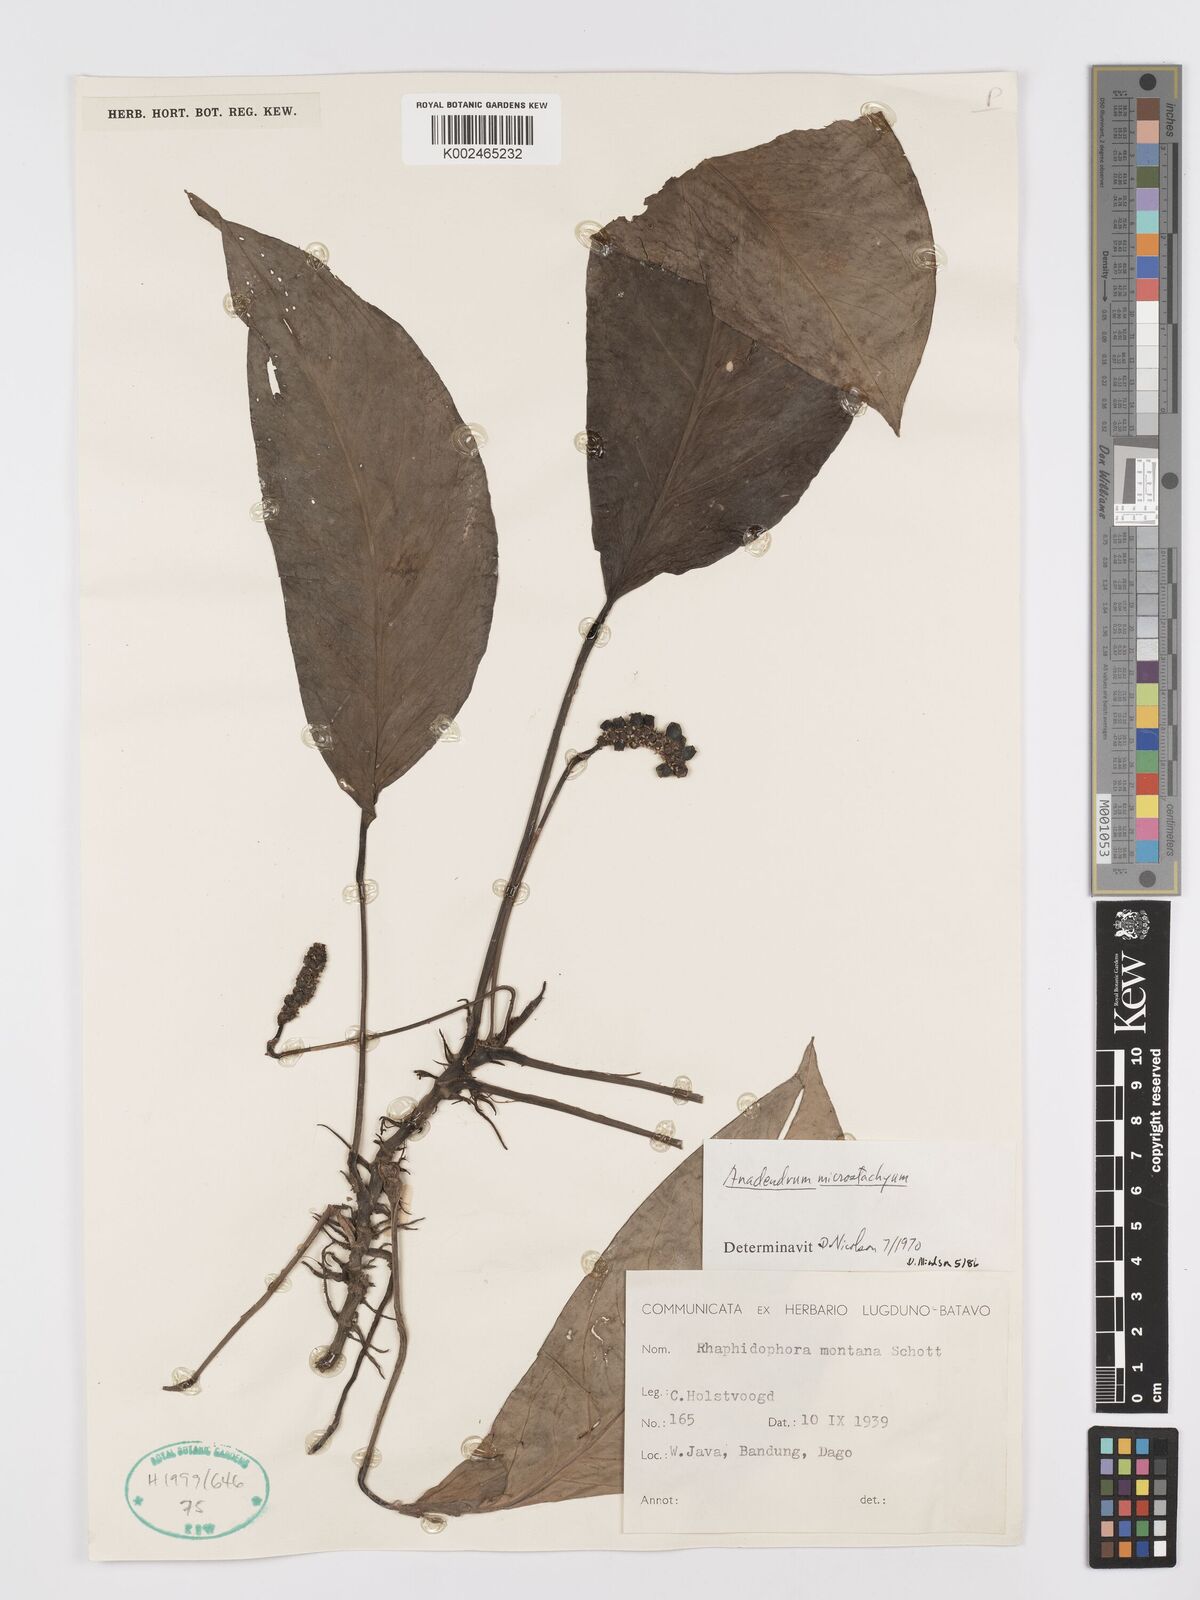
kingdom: Plantae
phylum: Tracheophyta
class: Liliopsida
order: Alismatales
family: Araceae
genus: Anadendrum
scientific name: Anadendrum microstachyum
